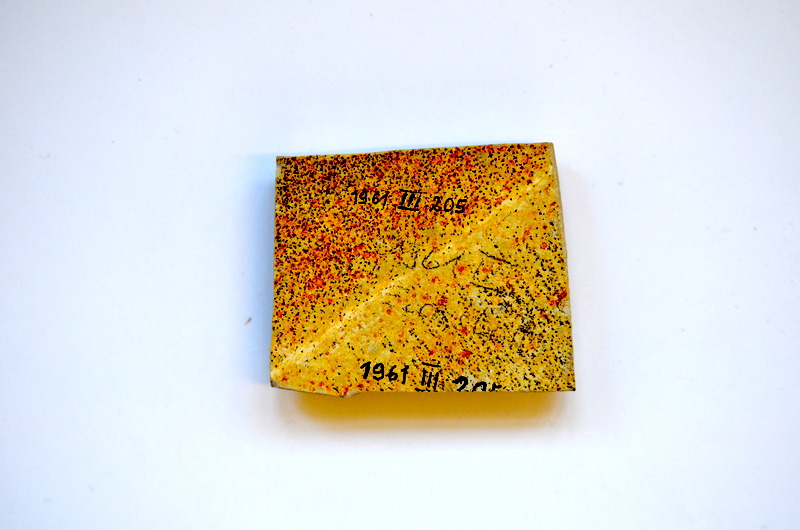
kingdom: Animalia
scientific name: Animalia
